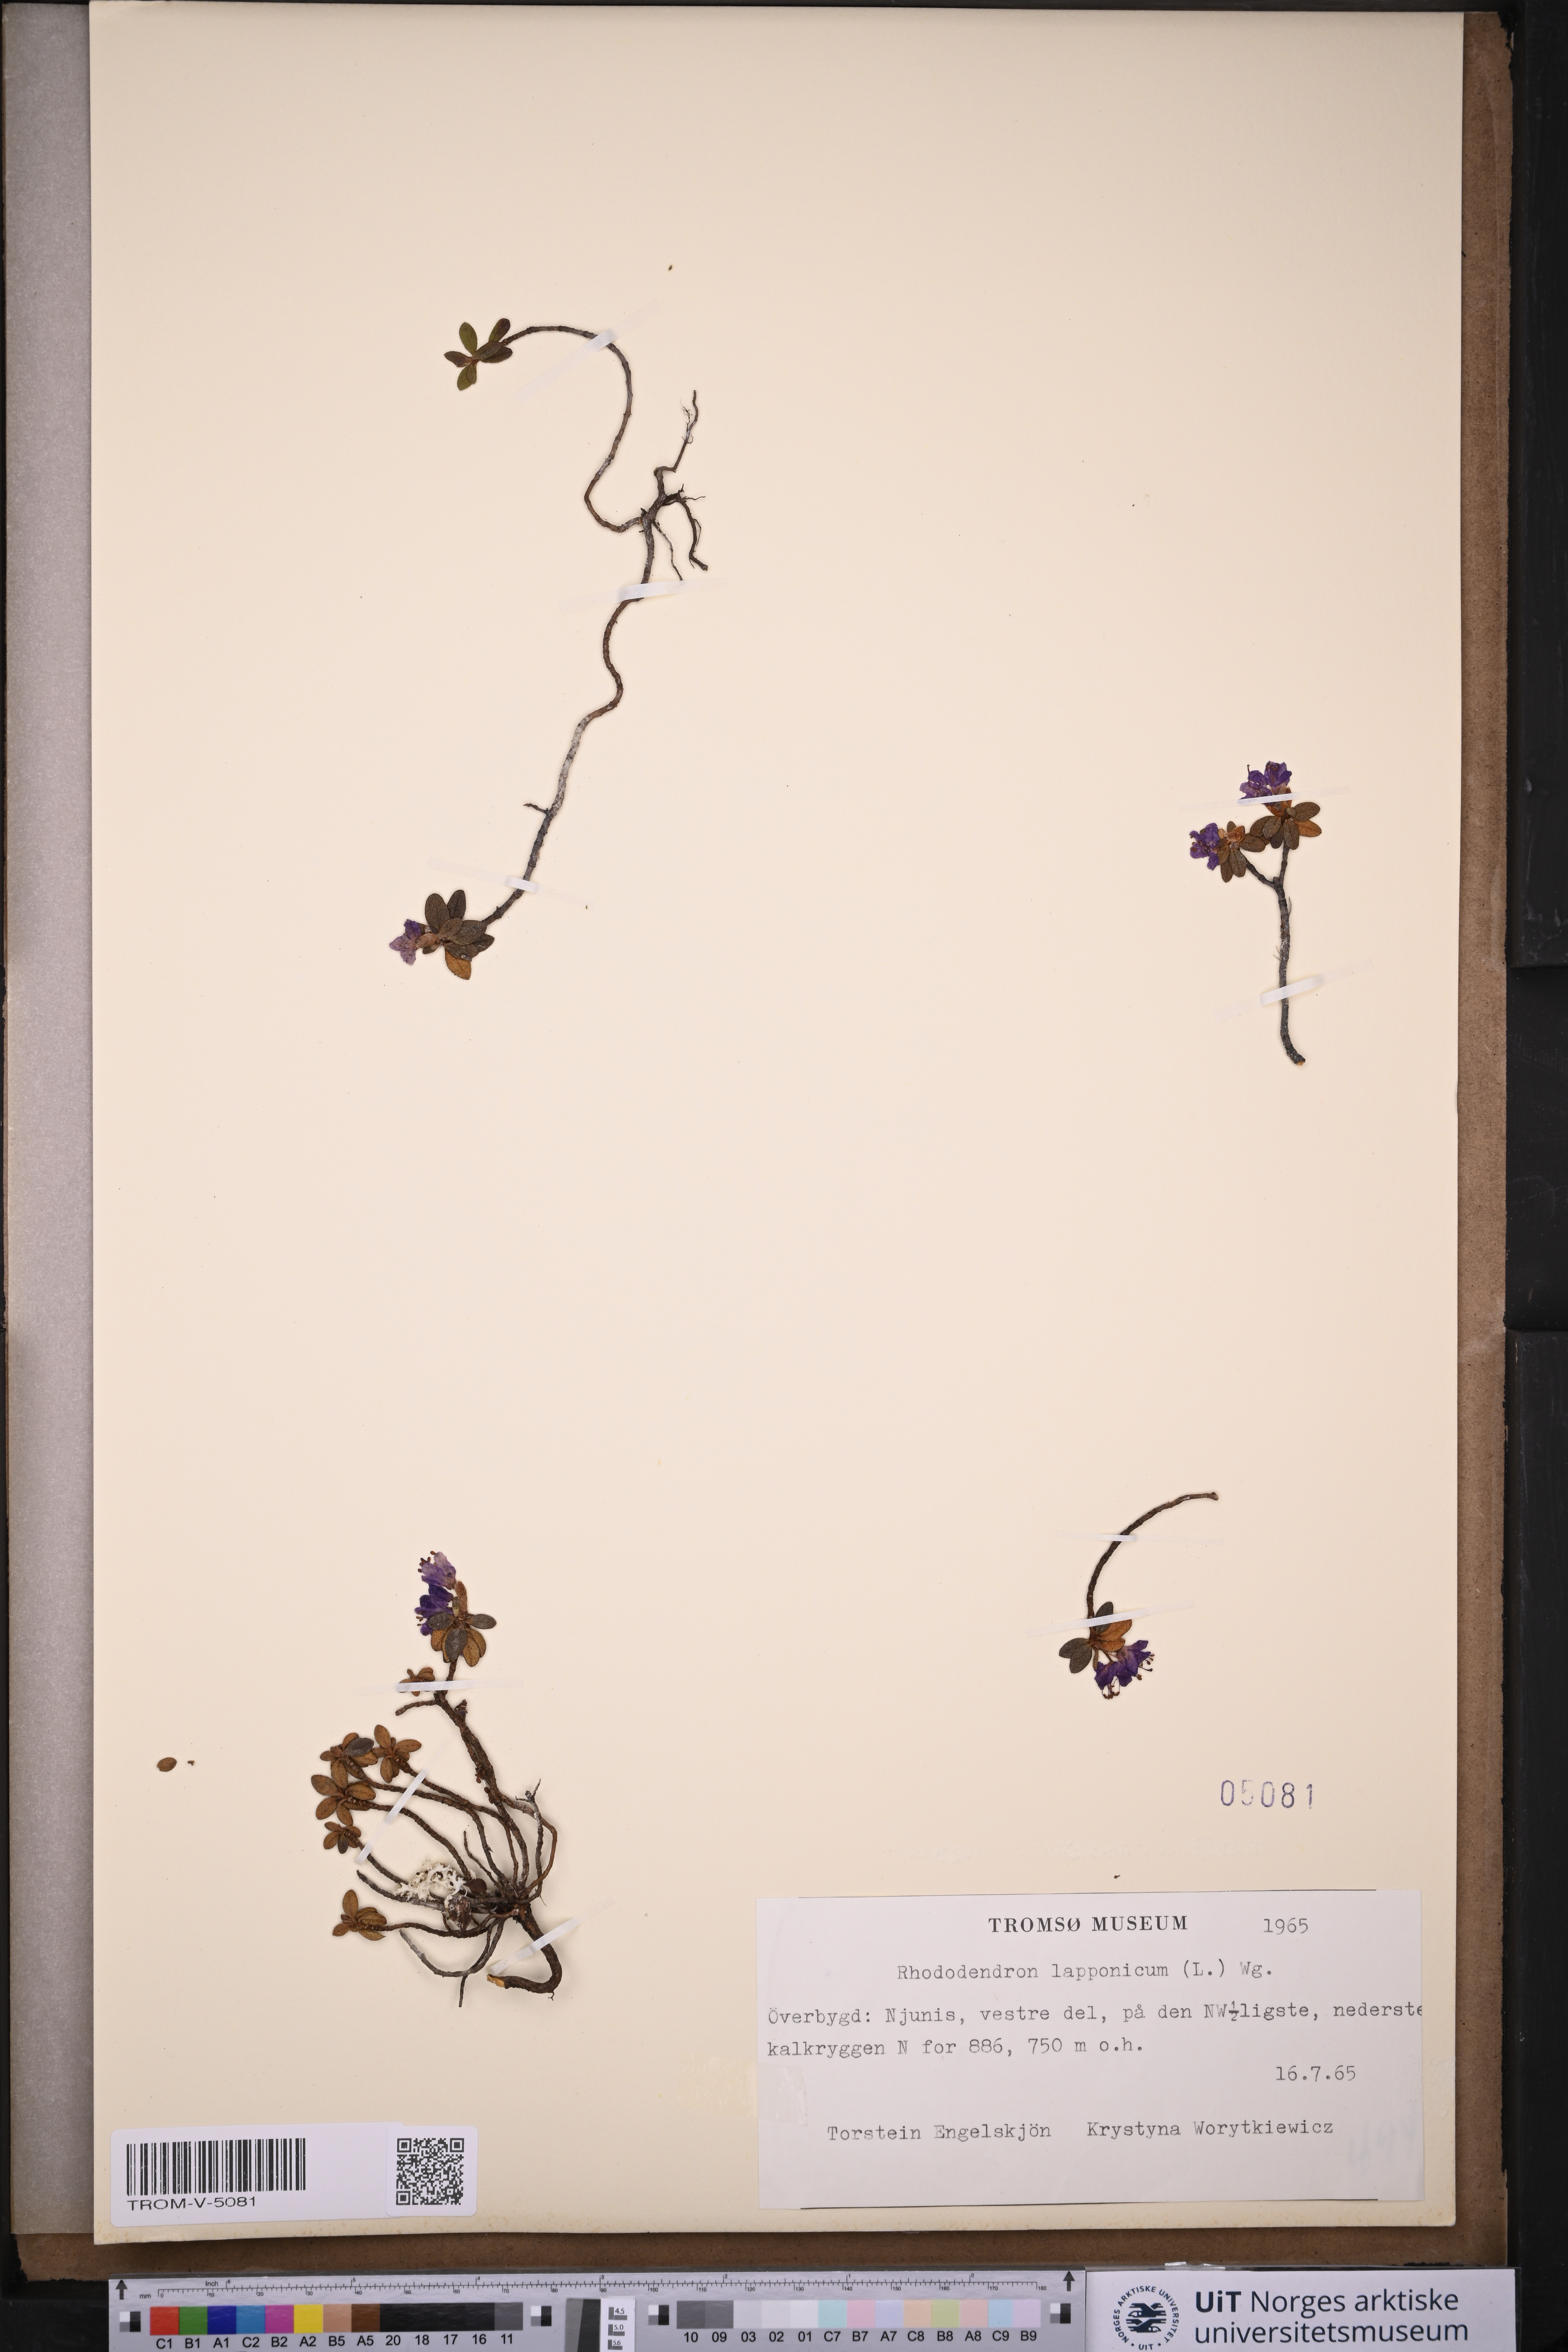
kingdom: Plantae
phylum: Tracheophyta
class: Magnoliopsida
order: Ericales
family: Ericaceae
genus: Rhododendron
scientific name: Rhododendron lapponicum
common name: Lapland rhododendron
